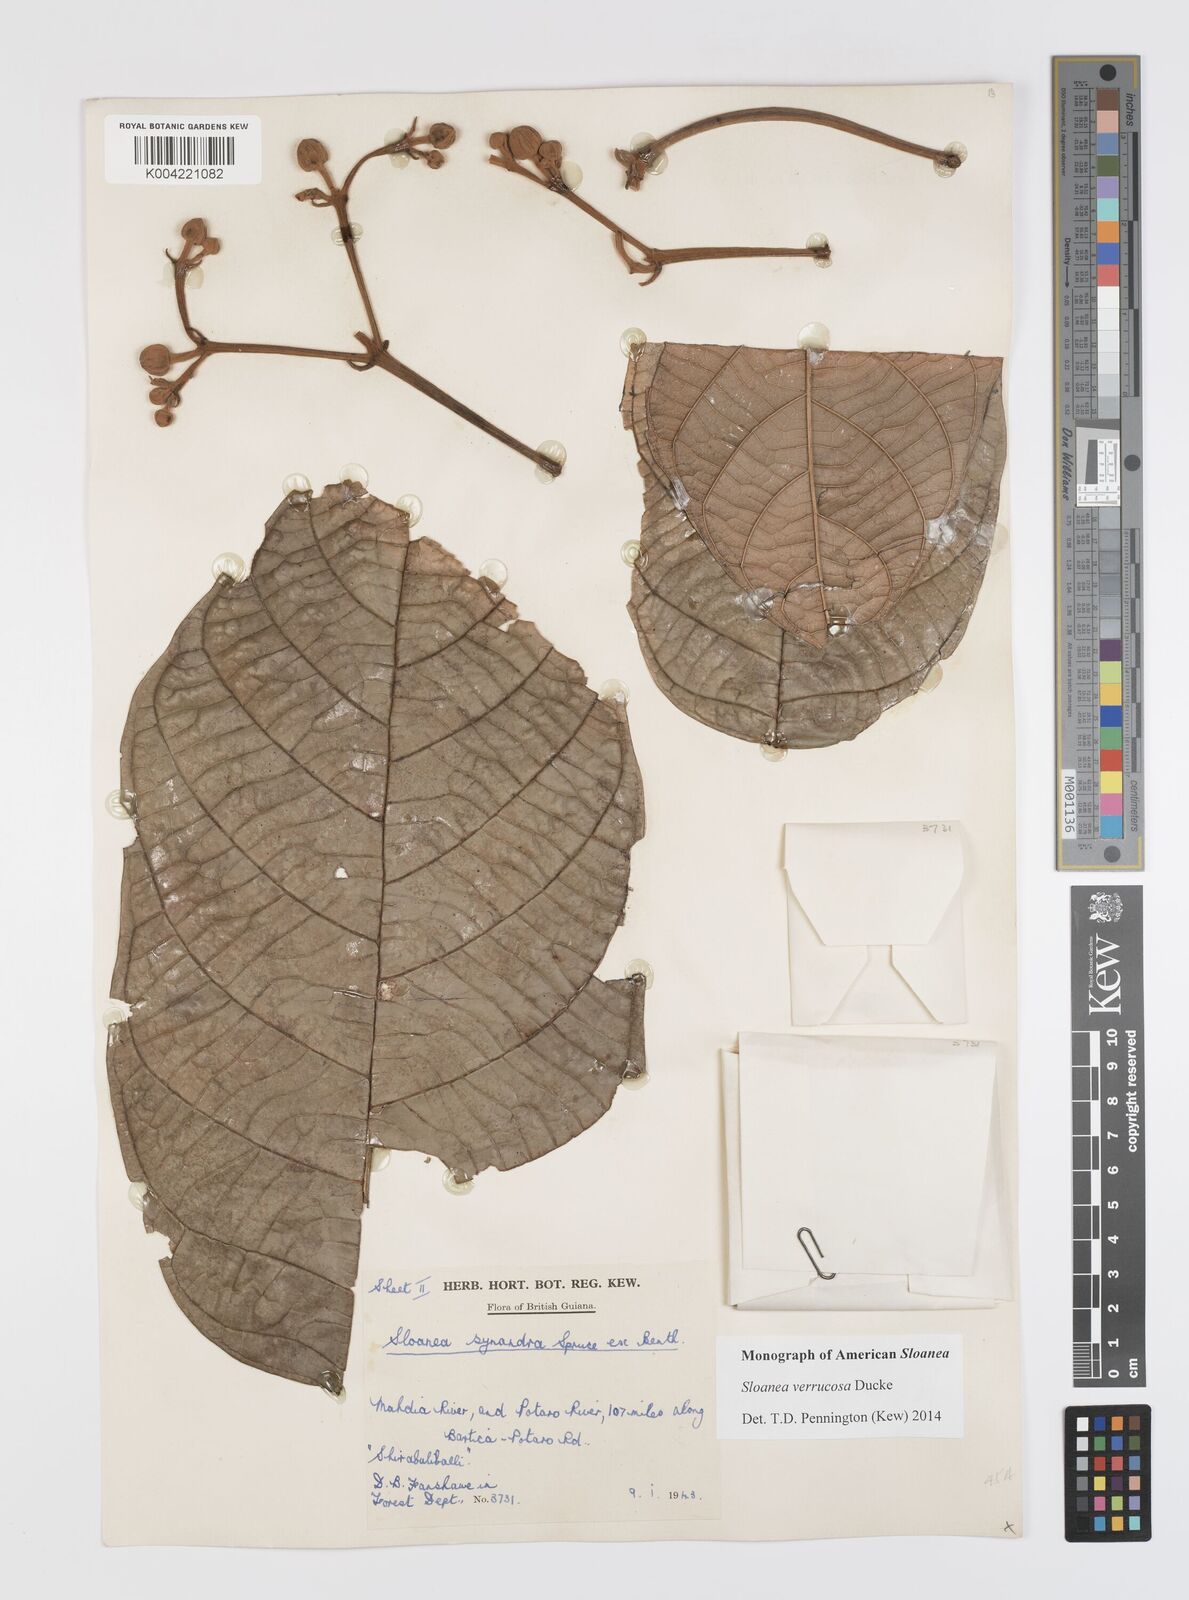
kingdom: Plantae
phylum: Tracheophyta
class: Magnoliopsida
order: Oxalidales
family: Elaeocarpaceae
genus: Sloanea
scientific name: Sloanea schomburgkii
